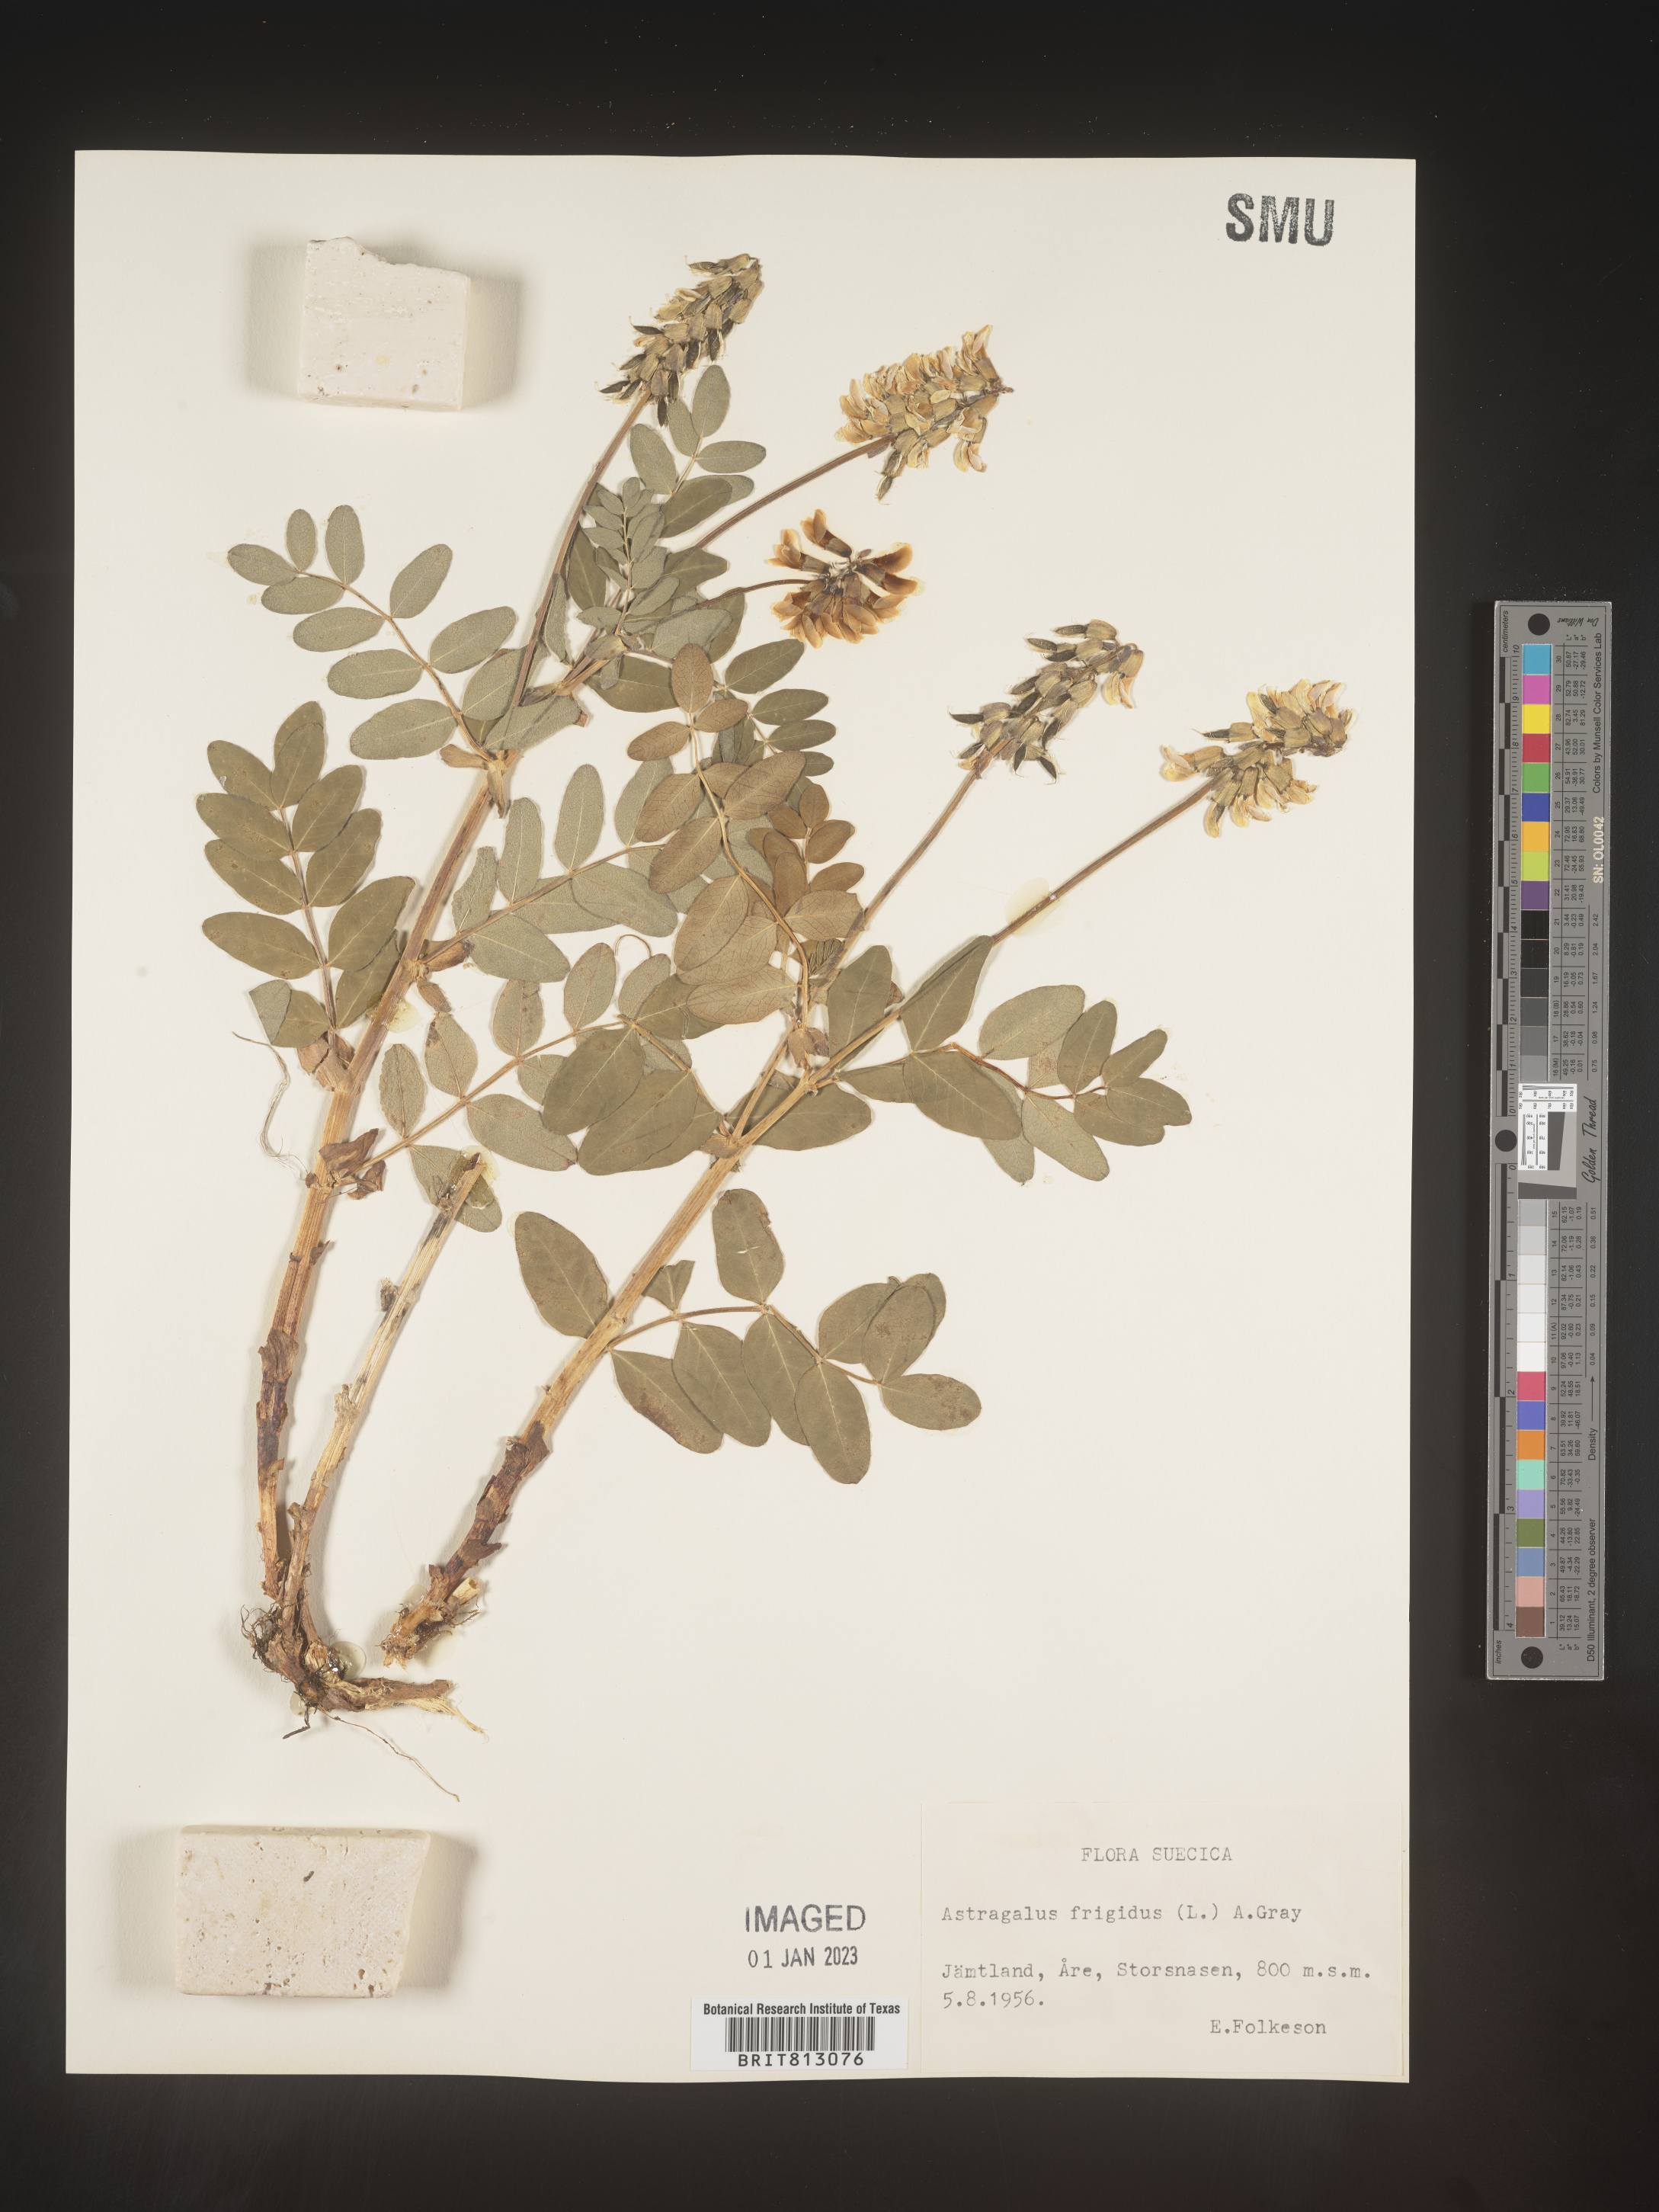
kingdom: Plantae
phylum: Tracheophyta
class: Magnoliopsida
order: Fabales
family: Fabaceae
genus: Astragalus
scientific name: Astragalus
